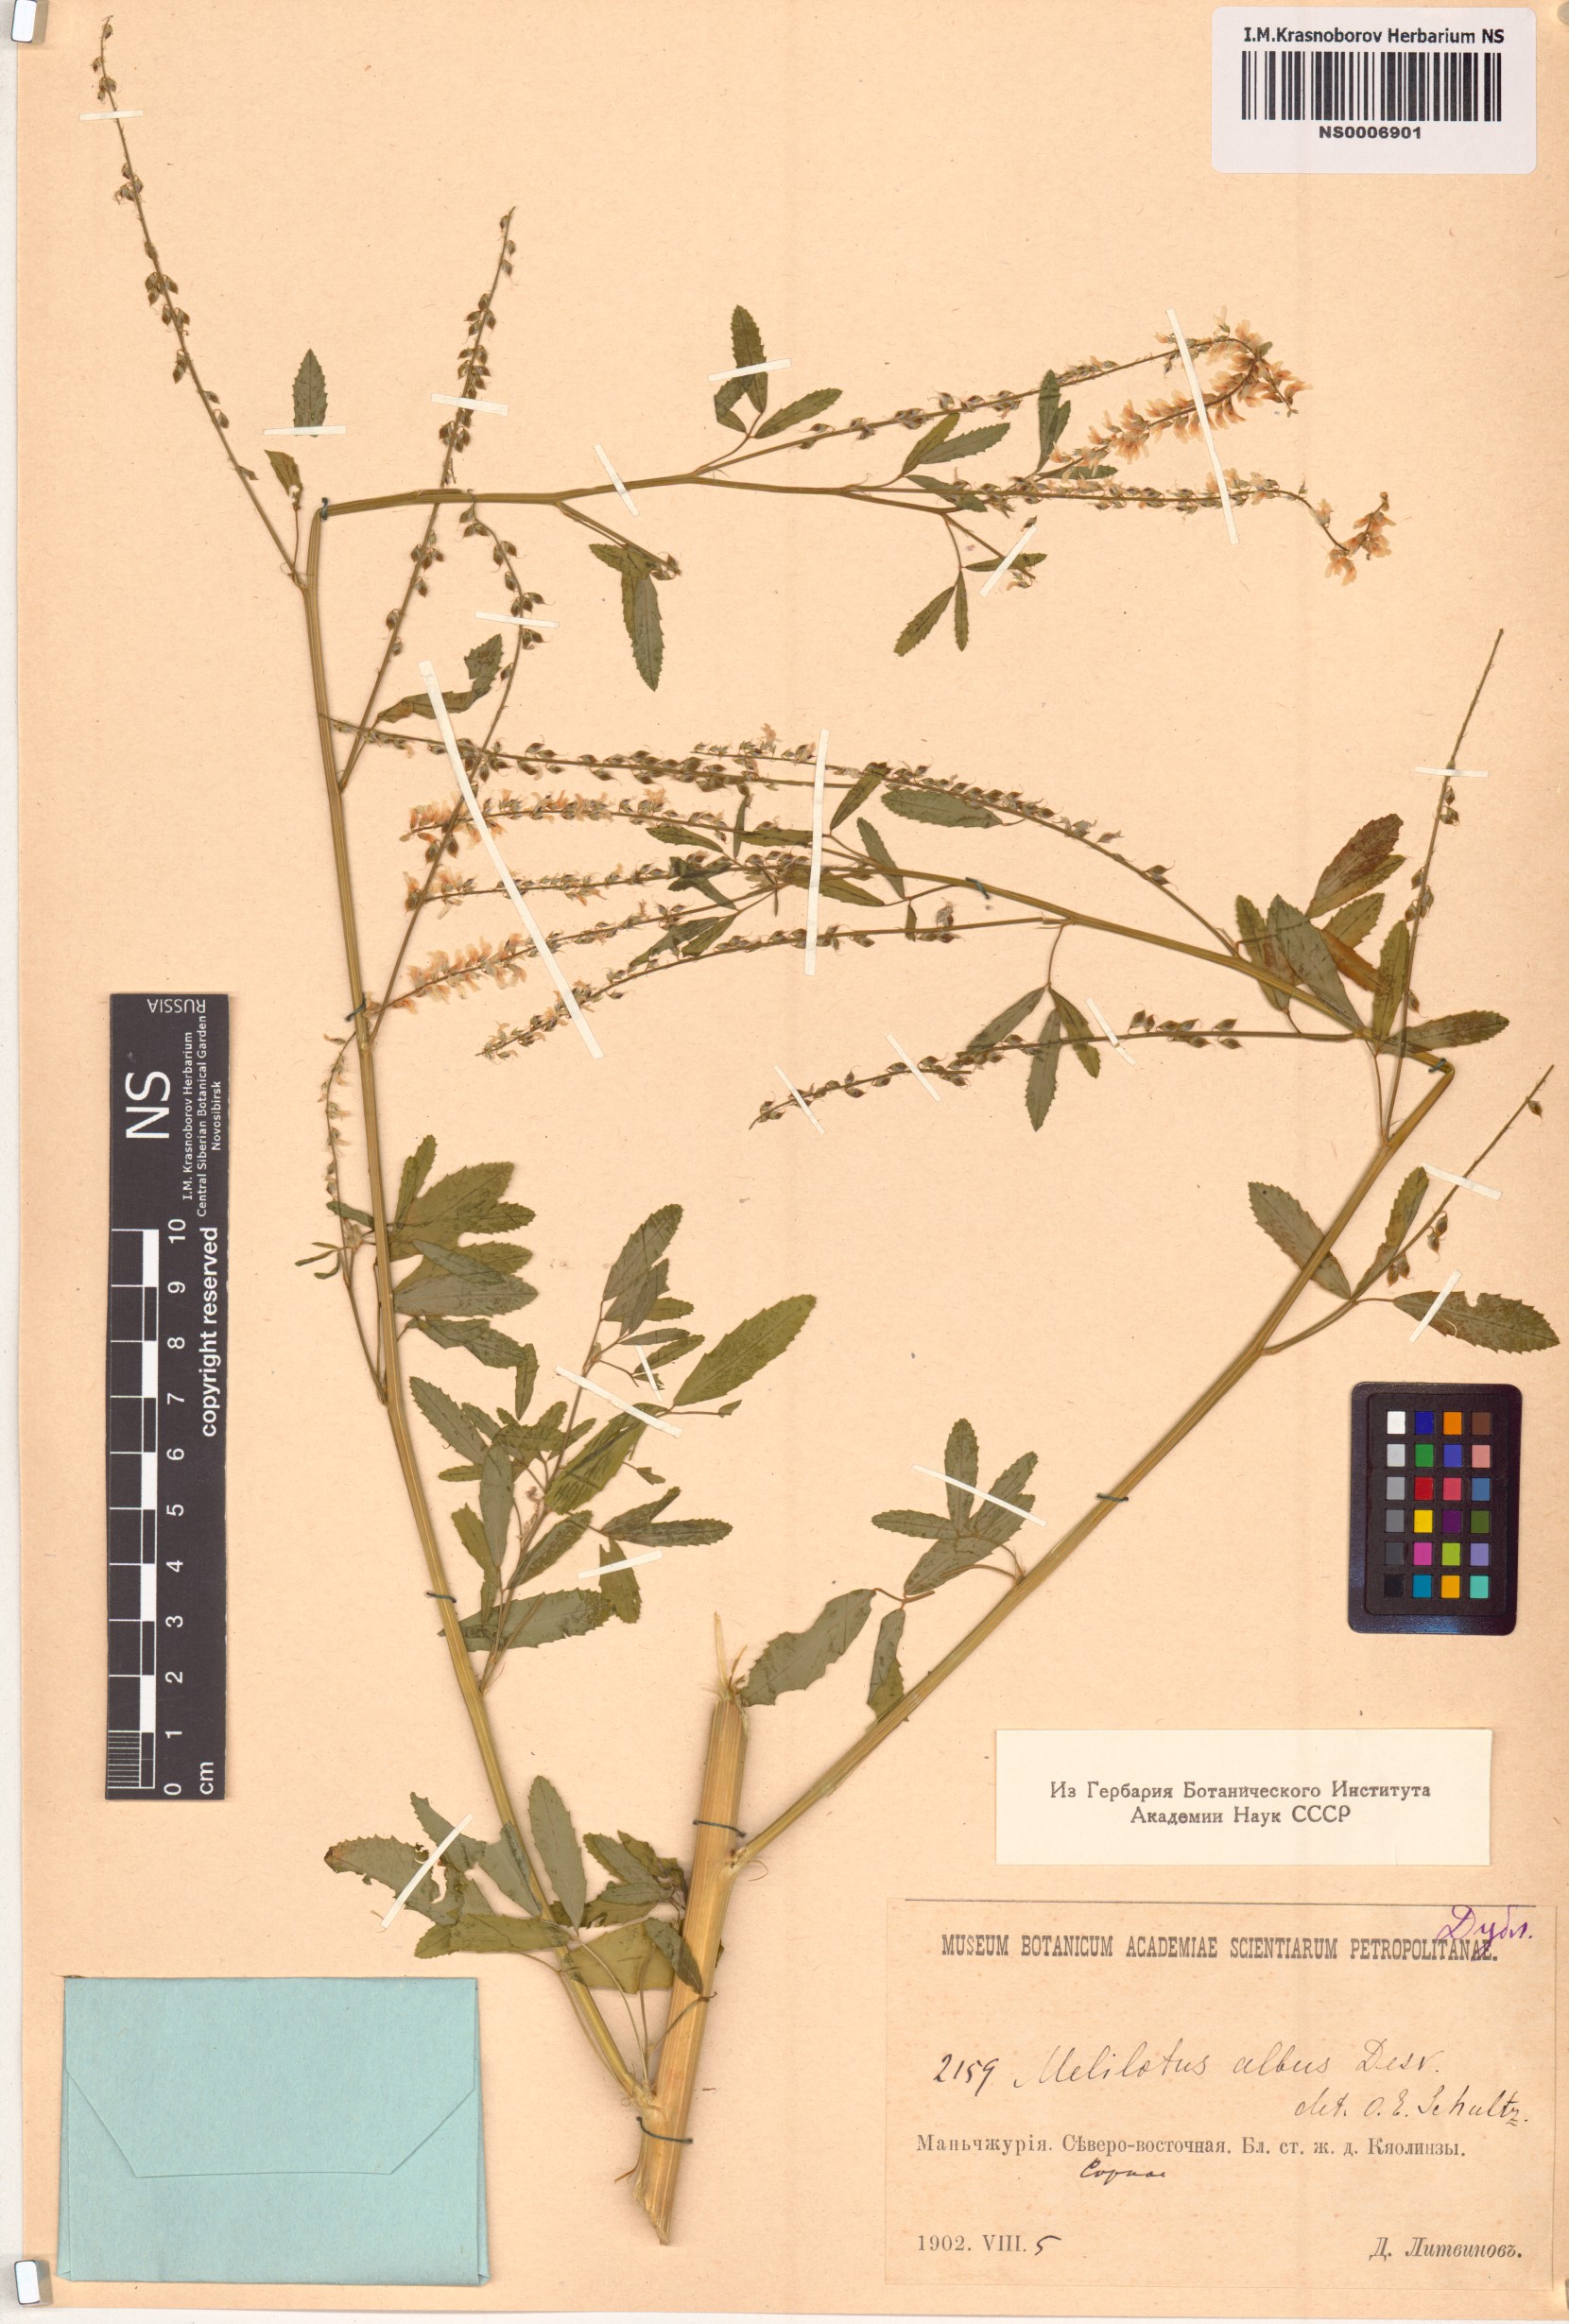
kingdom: Plantae
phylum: Tracheophyta
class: Magnoliopsida
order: Fabales
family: Fabaceae
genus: Melilotus
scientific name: Melilotus albus
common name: White melilot
